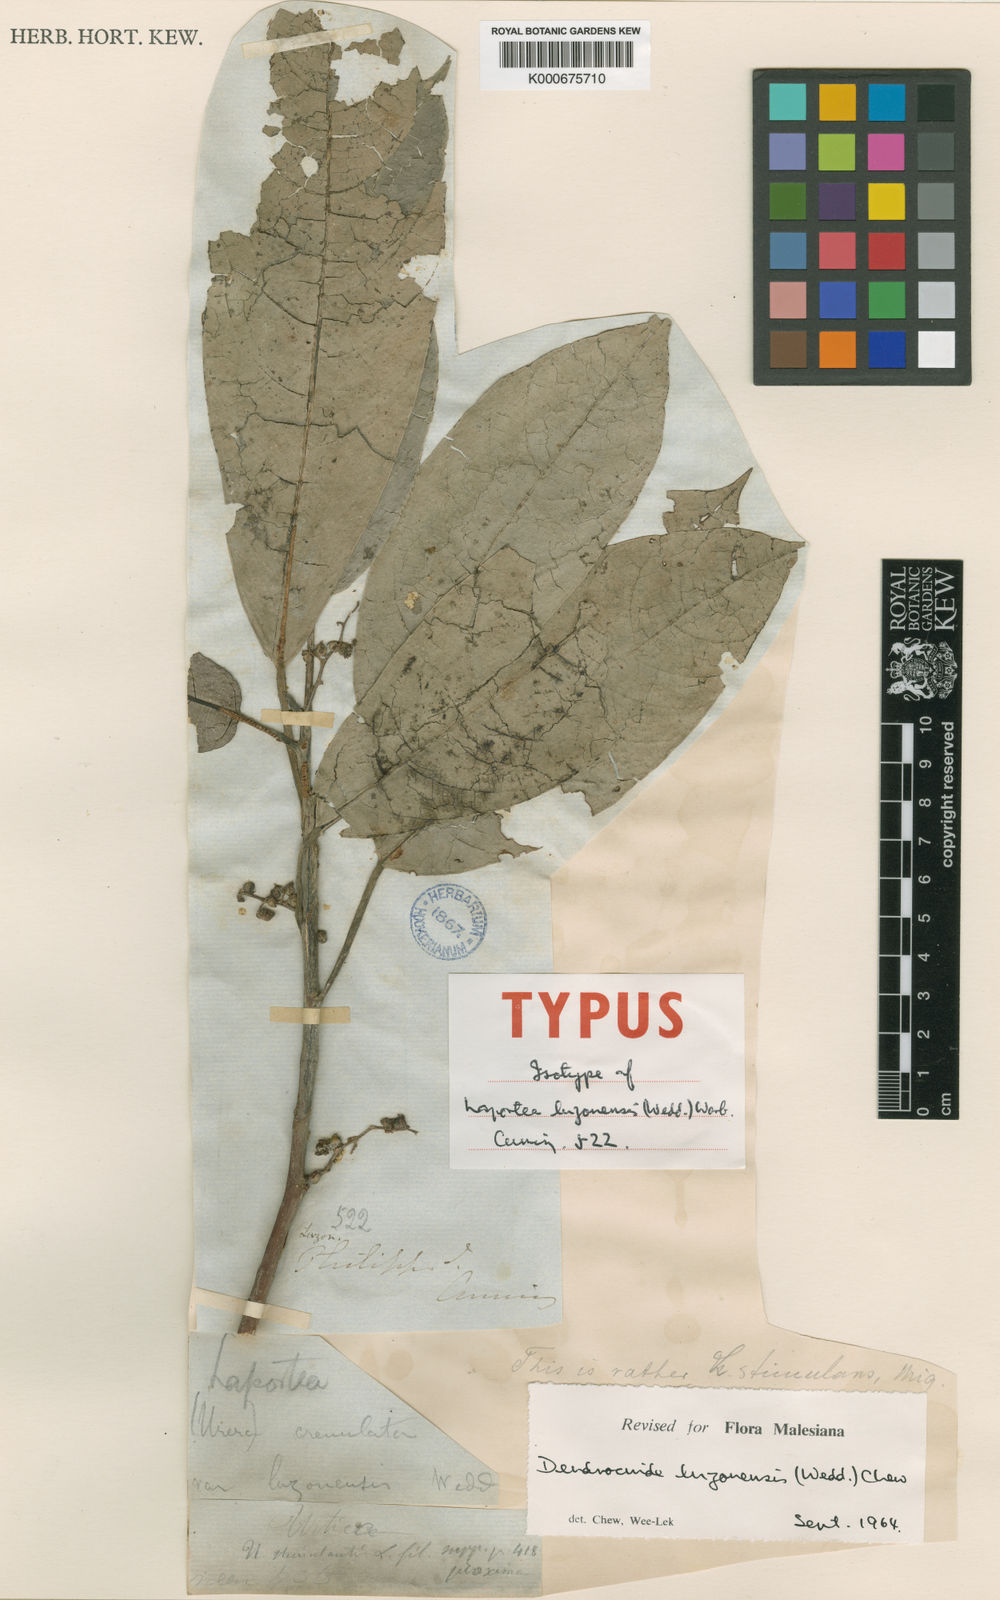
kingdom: Plantae
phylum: Tracheophyta
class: Magnoliopsida
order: Rosales
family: Urticaceae
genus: Dendrocnide
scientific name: Dendrocnide luzonensis
